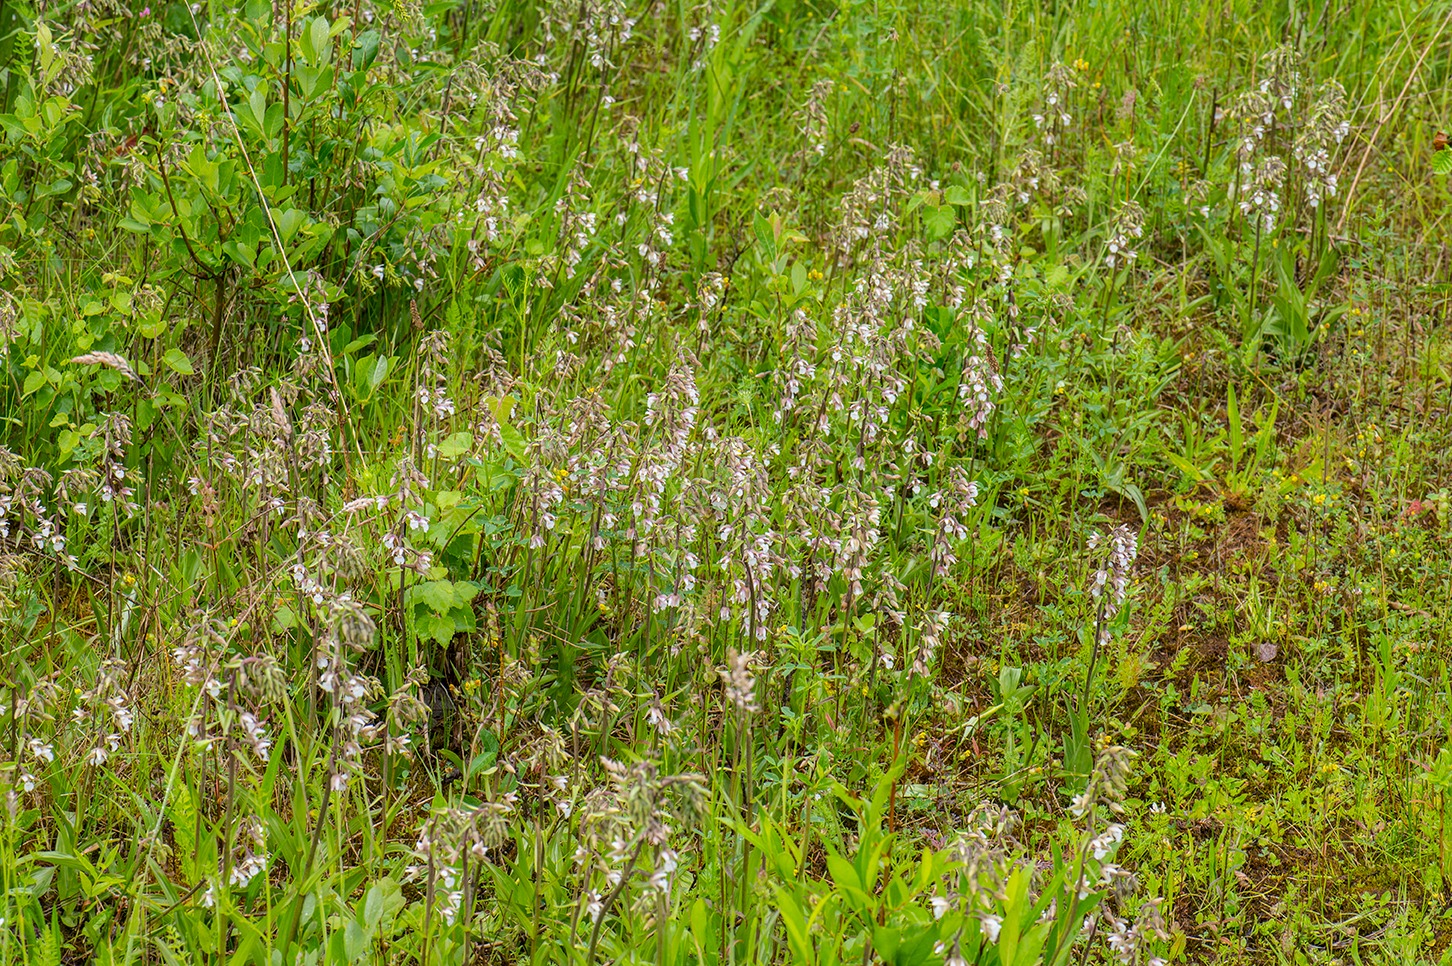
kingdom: Plantae
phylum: Tracheophyta
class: Liliopsida
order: Asparagales
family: Orchidaceae
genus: Epipactis
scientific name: Epipactis palustris
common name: Sump-hullæbe
